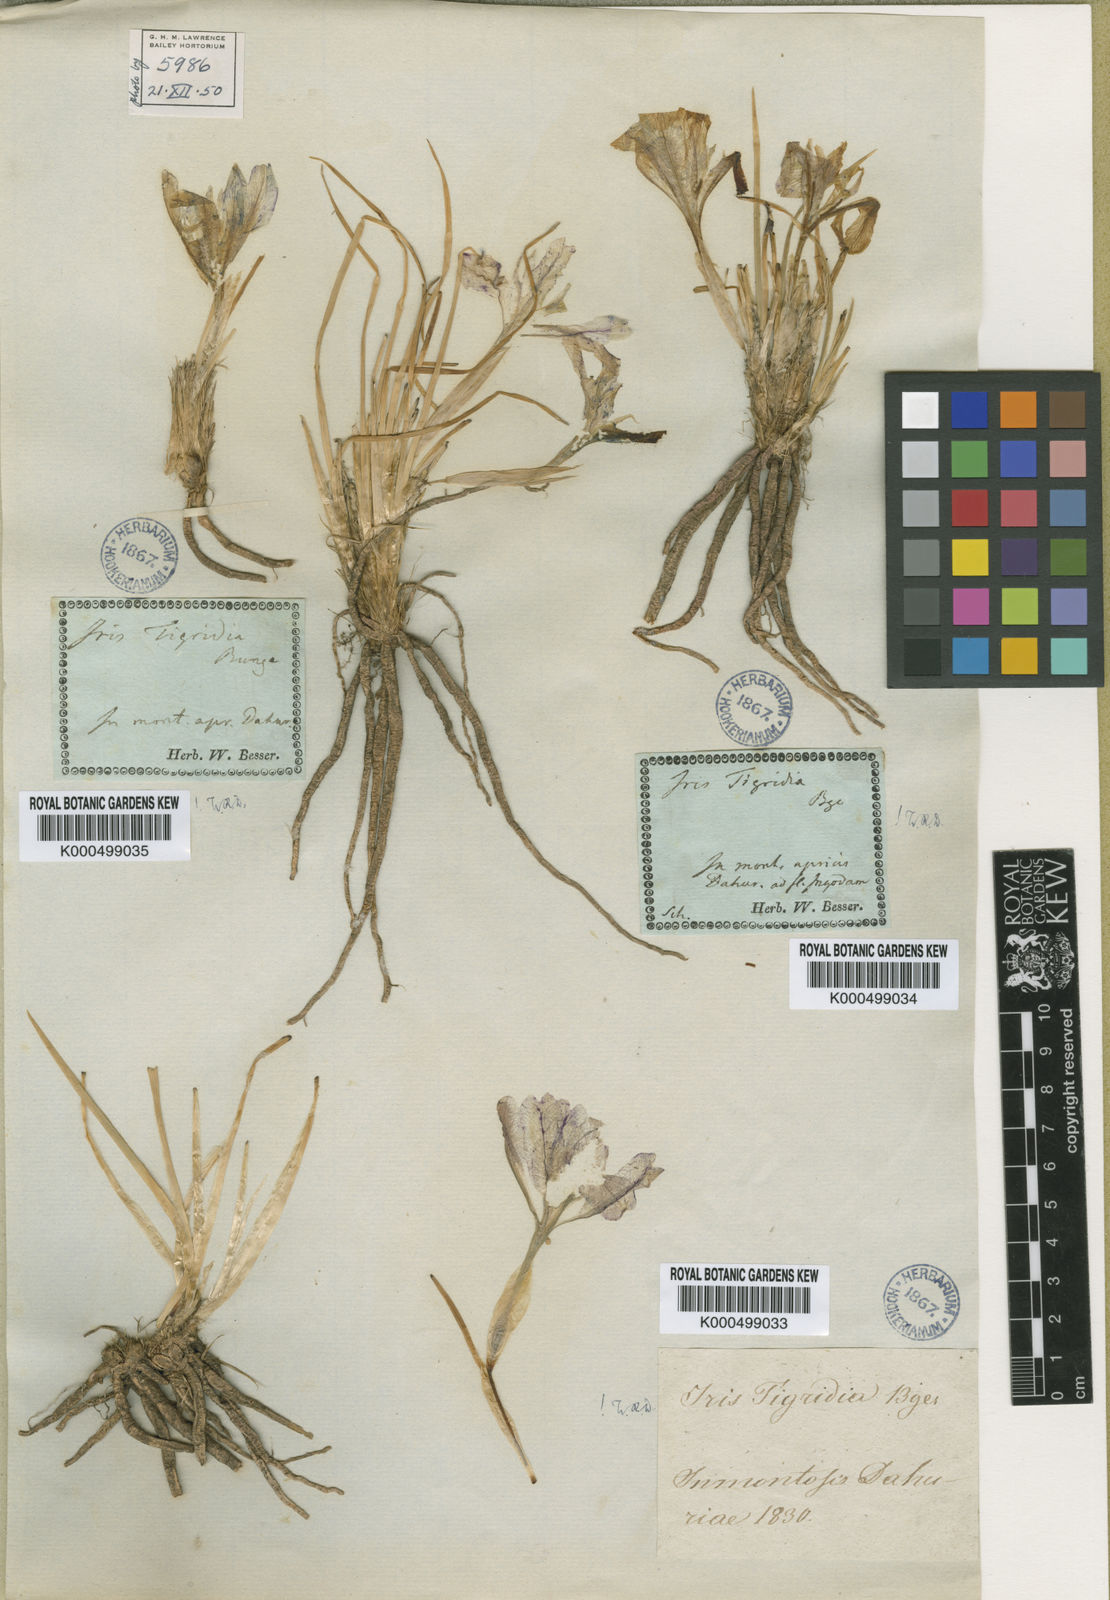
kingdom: Plantae
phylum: Tracheophyta
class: Liliopsida
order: Asparagales
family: Iridaceae
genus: Iris
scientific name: Iris
